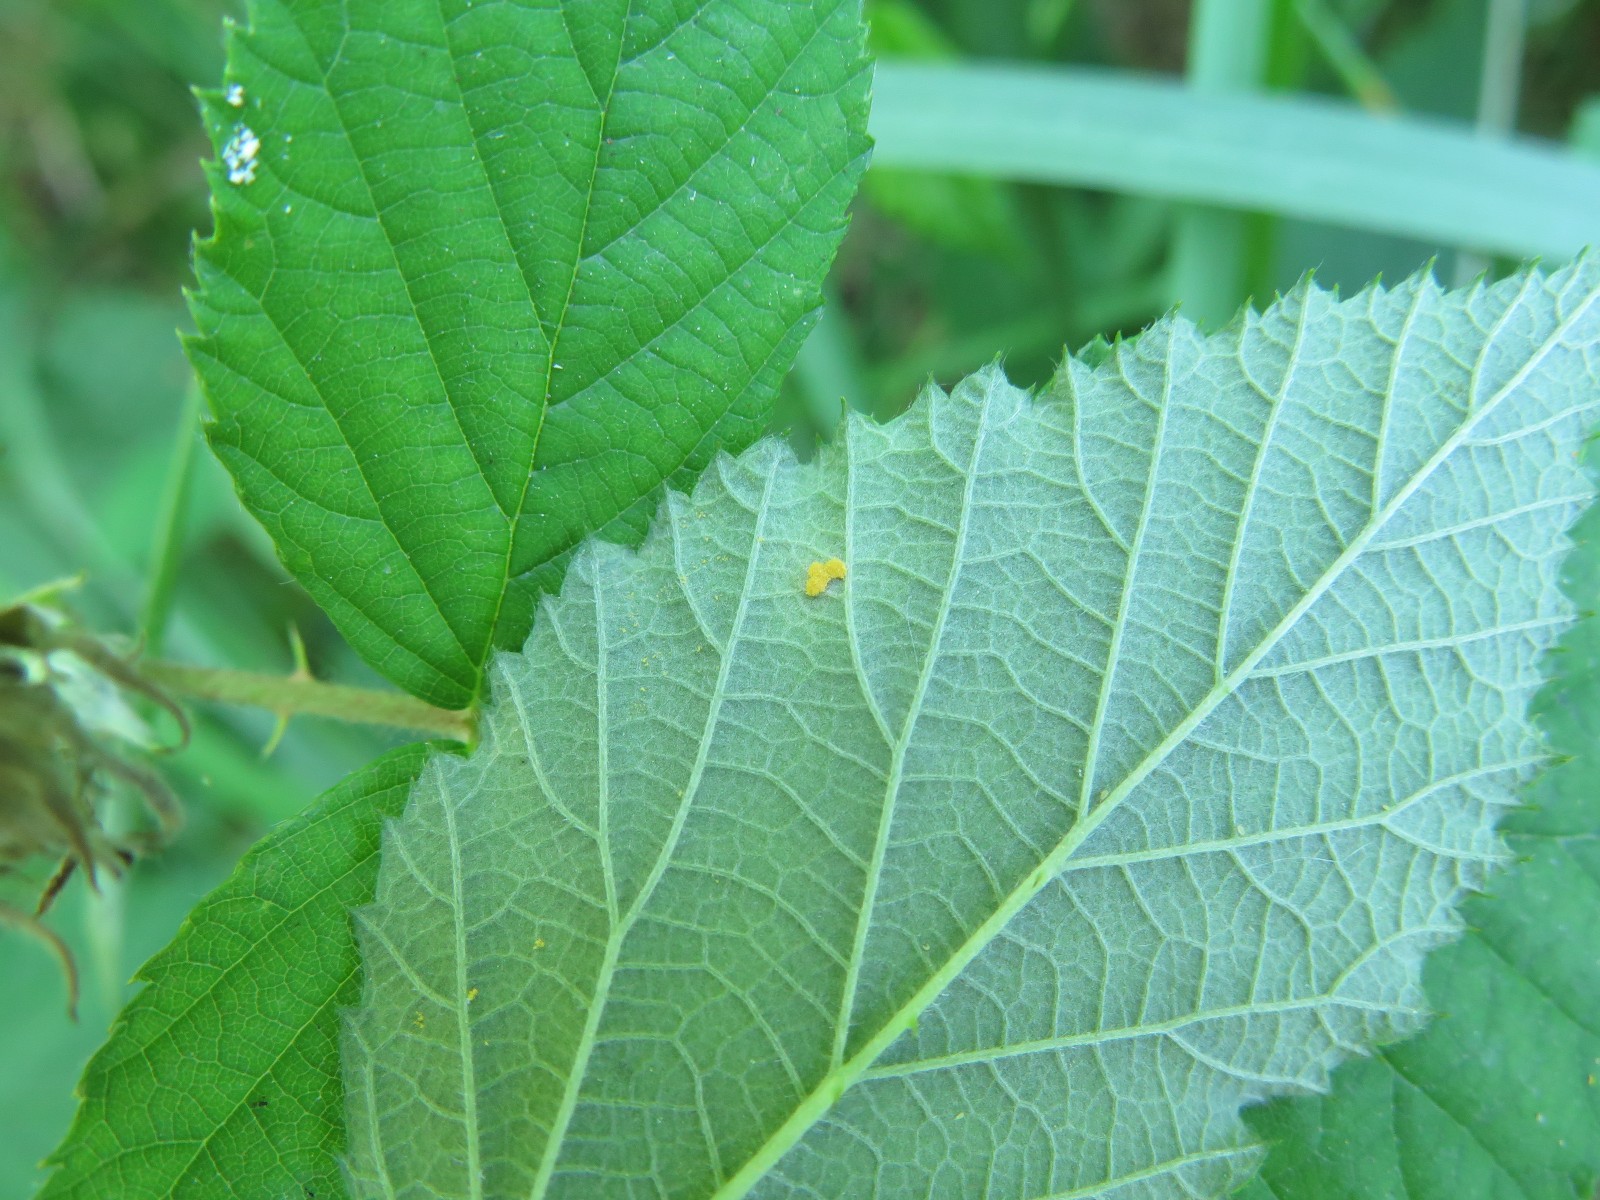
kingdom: Fungi
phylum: Basidiomycota
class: Pucciniomycetes
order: Pucciniales
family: Phragmidiaceae
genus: Phragmidium
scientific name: Phragmidium rubi-idaei
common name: hindbær-flercellerust
